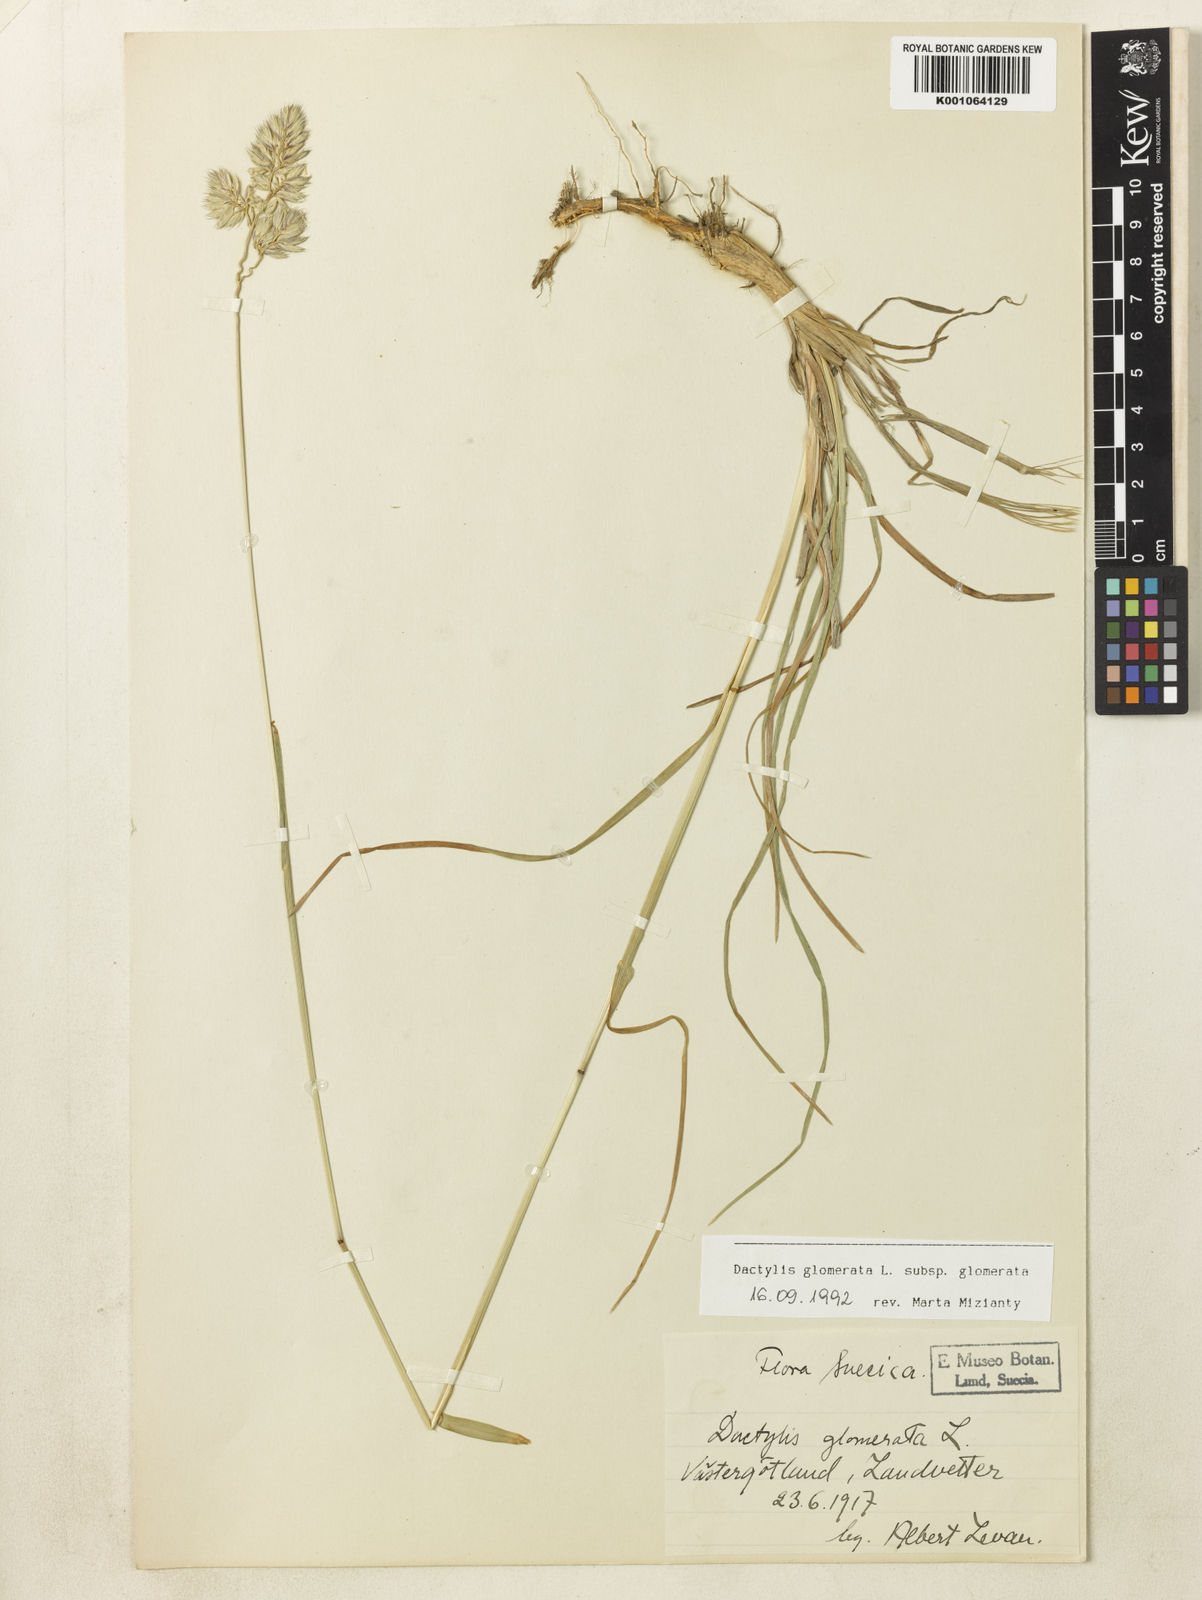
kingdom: Plantae
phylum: Tracheophyta
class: Liliopsida
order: Poales
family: Poaceae
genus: Dactylis
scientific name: Dactylis glomerata
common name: Orchardgrass
